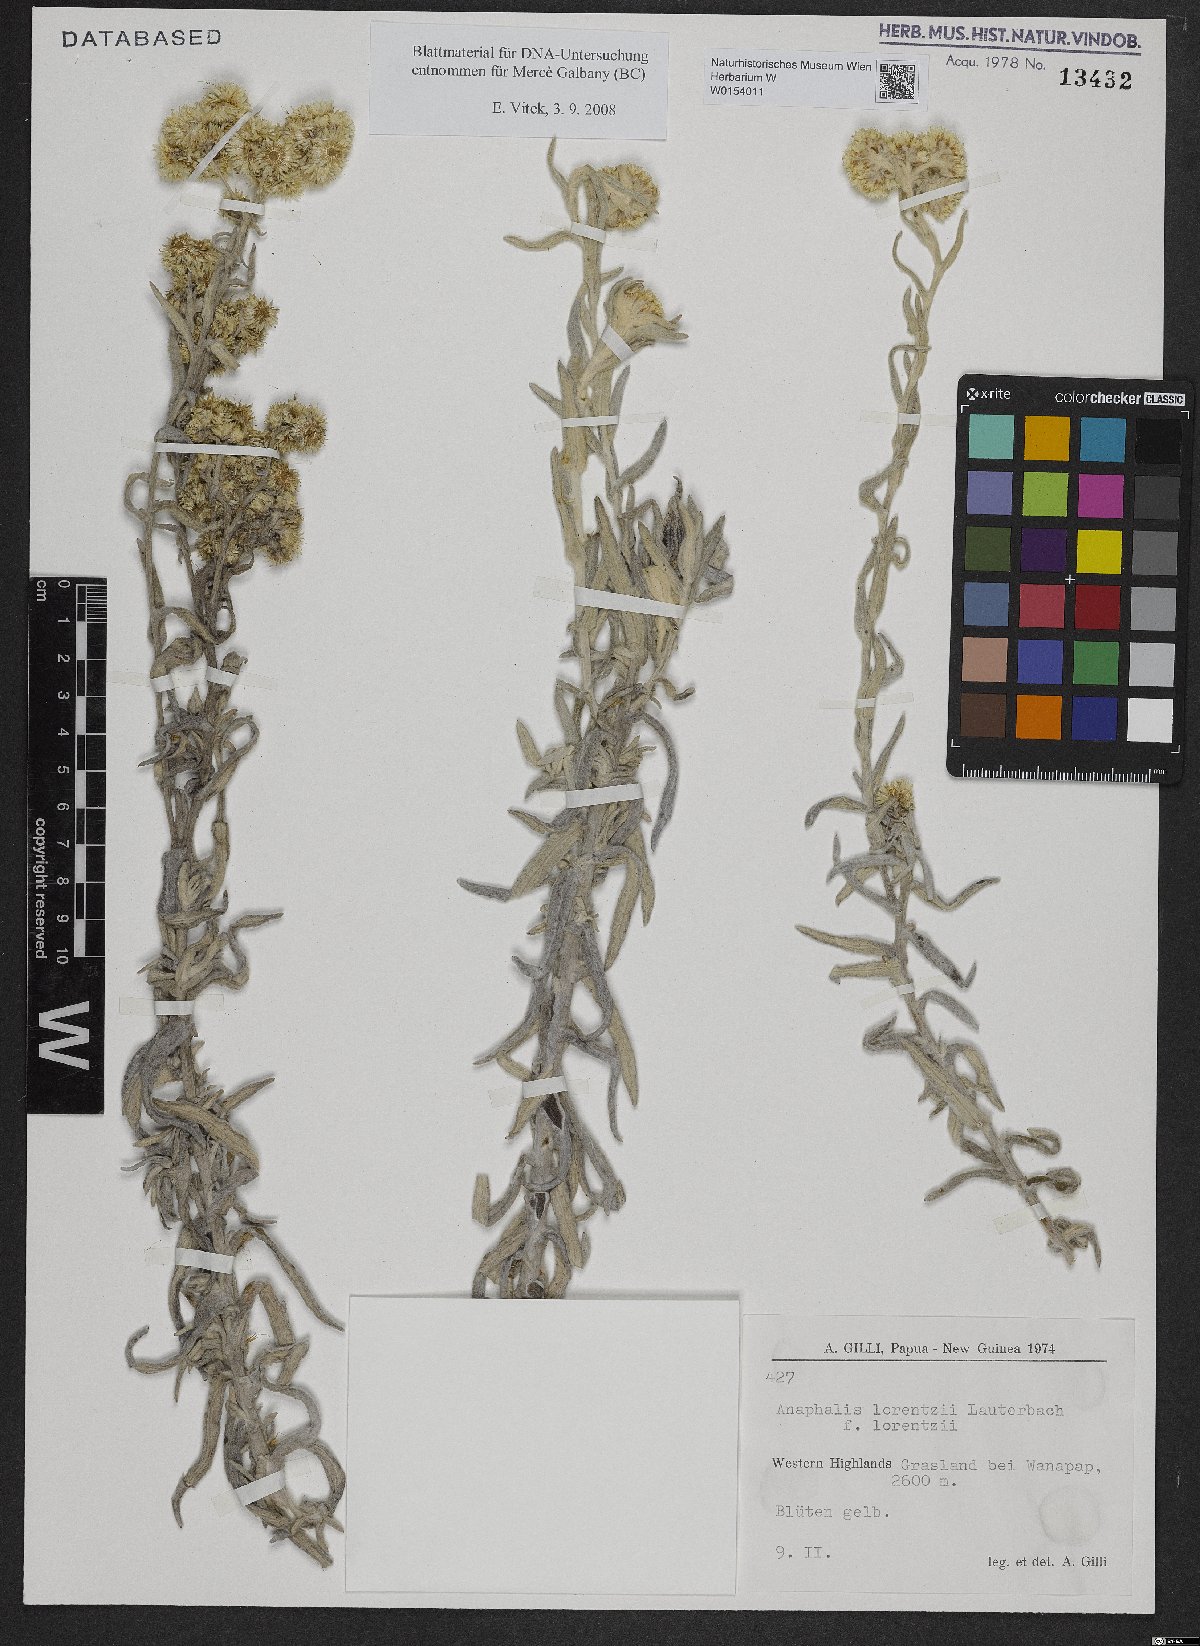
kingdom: Plantae
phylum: Tracheophyta
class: Magnoliopsida
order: Asterales
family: Asteraceae
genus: Anaphalis
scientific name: Anaphalis lorentzii
